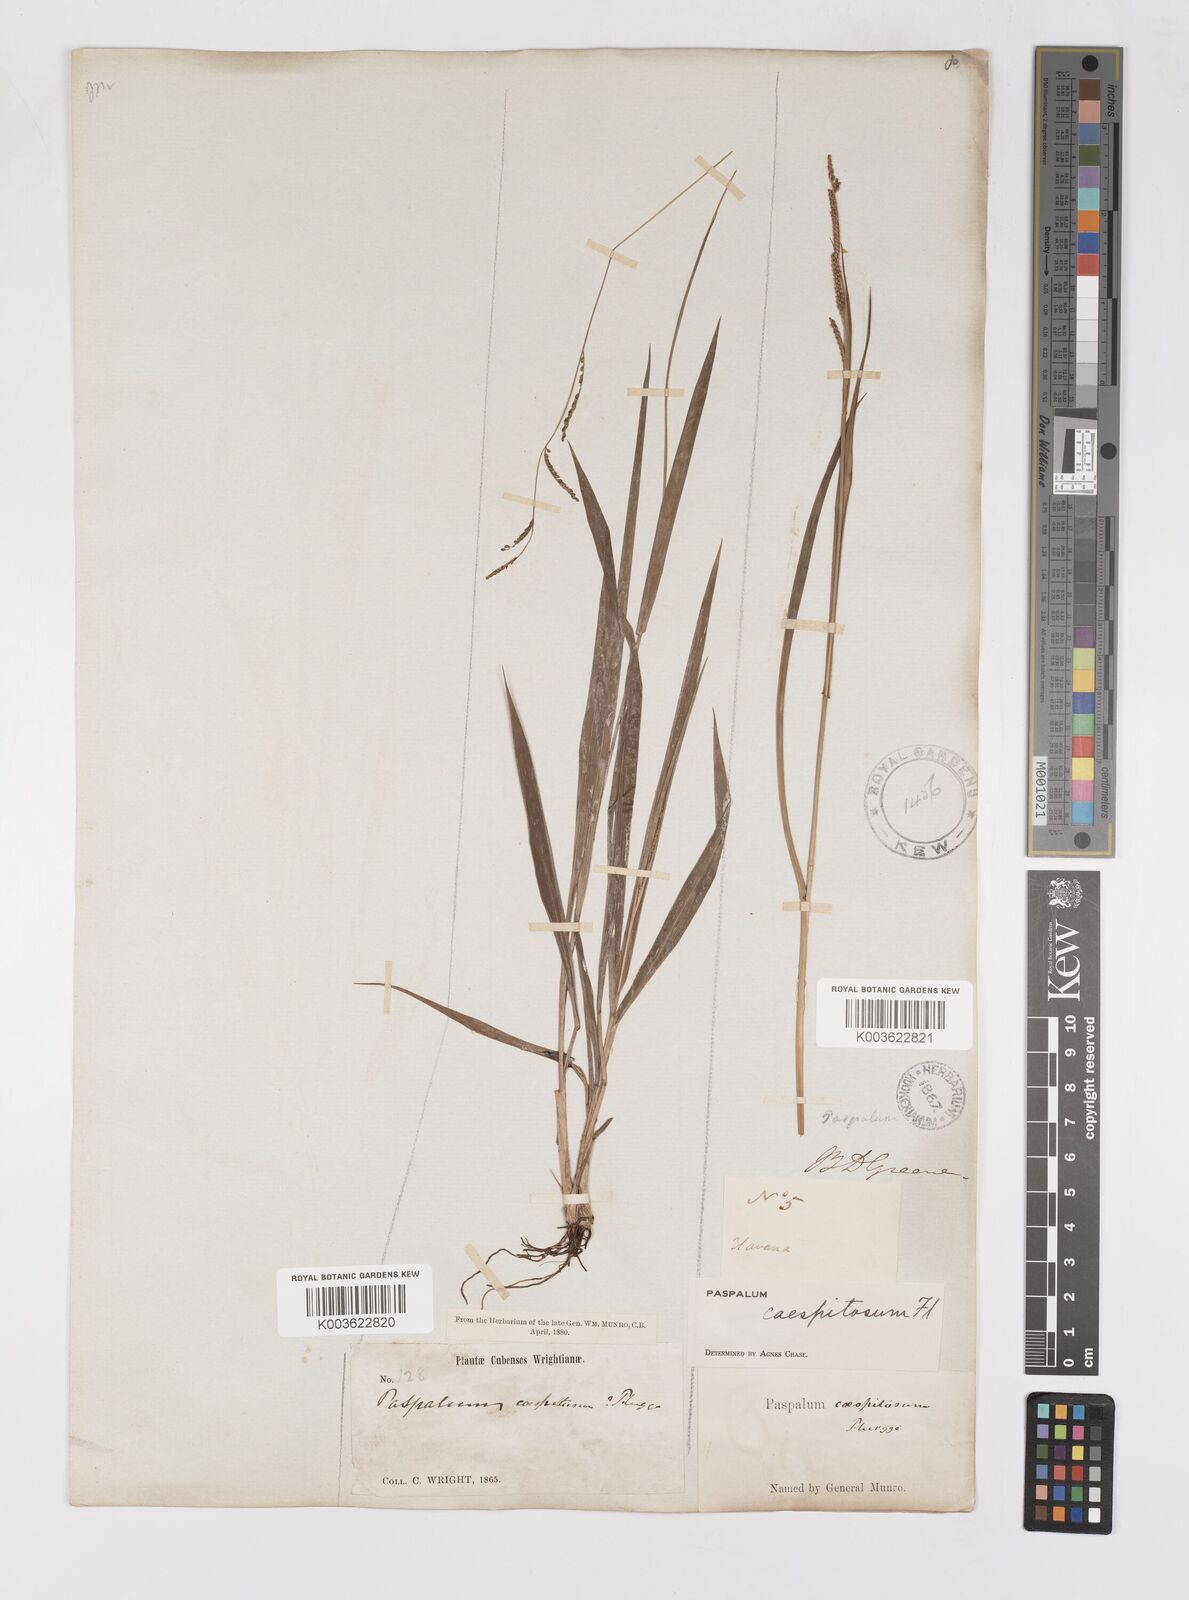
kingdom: Plantae
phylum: Tracheophyta
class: Liliopsida
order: Poales
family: Poaceae
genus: Paspalum
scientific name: Paspalum caespitosum
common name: Blue crowngrass
